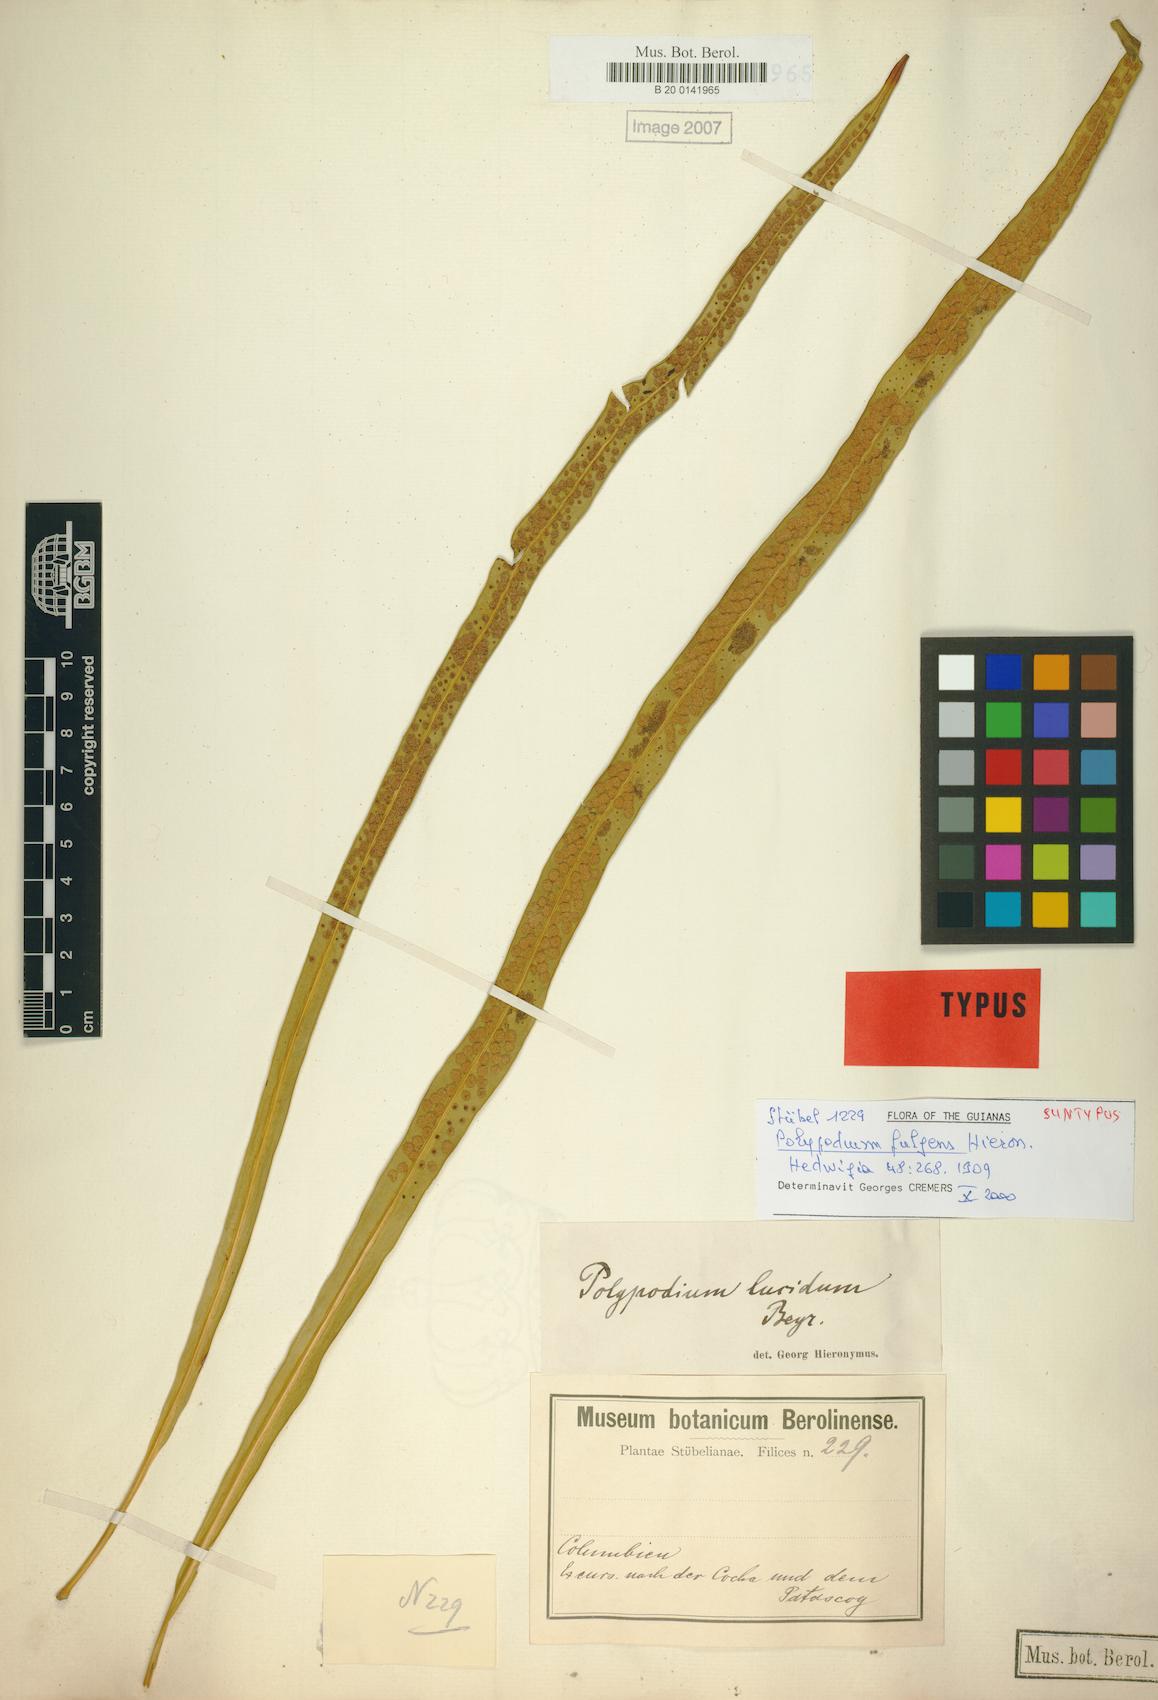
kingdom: Plantae
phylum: Tracheophyta
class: Polypodiopsida
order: Polypodiales
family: Polypodiaceae
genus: Campyloneurum
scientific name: Campyloneurum rigidum
